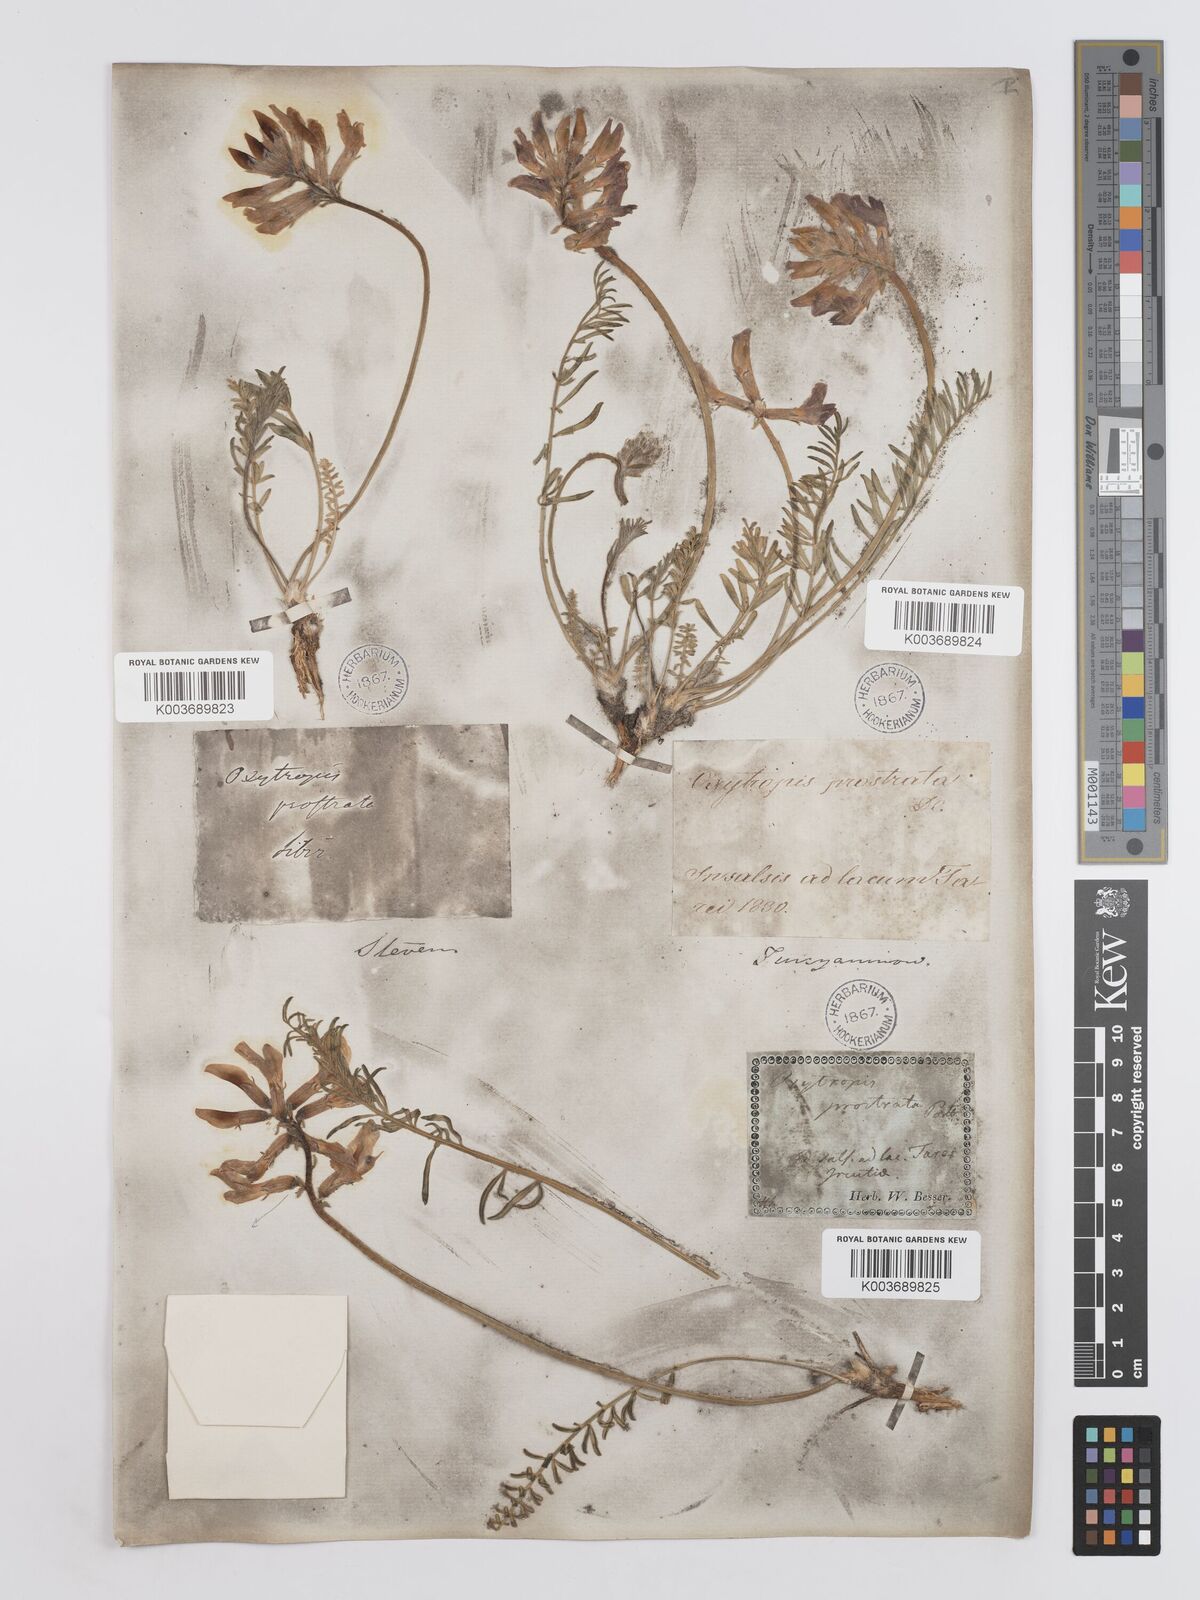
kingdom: Plantae
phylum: Tracheophyta
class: Magnoliopsida
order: Fabales
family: Fabaceae
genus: Oxytropis
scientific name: Oxytropis prostrata
